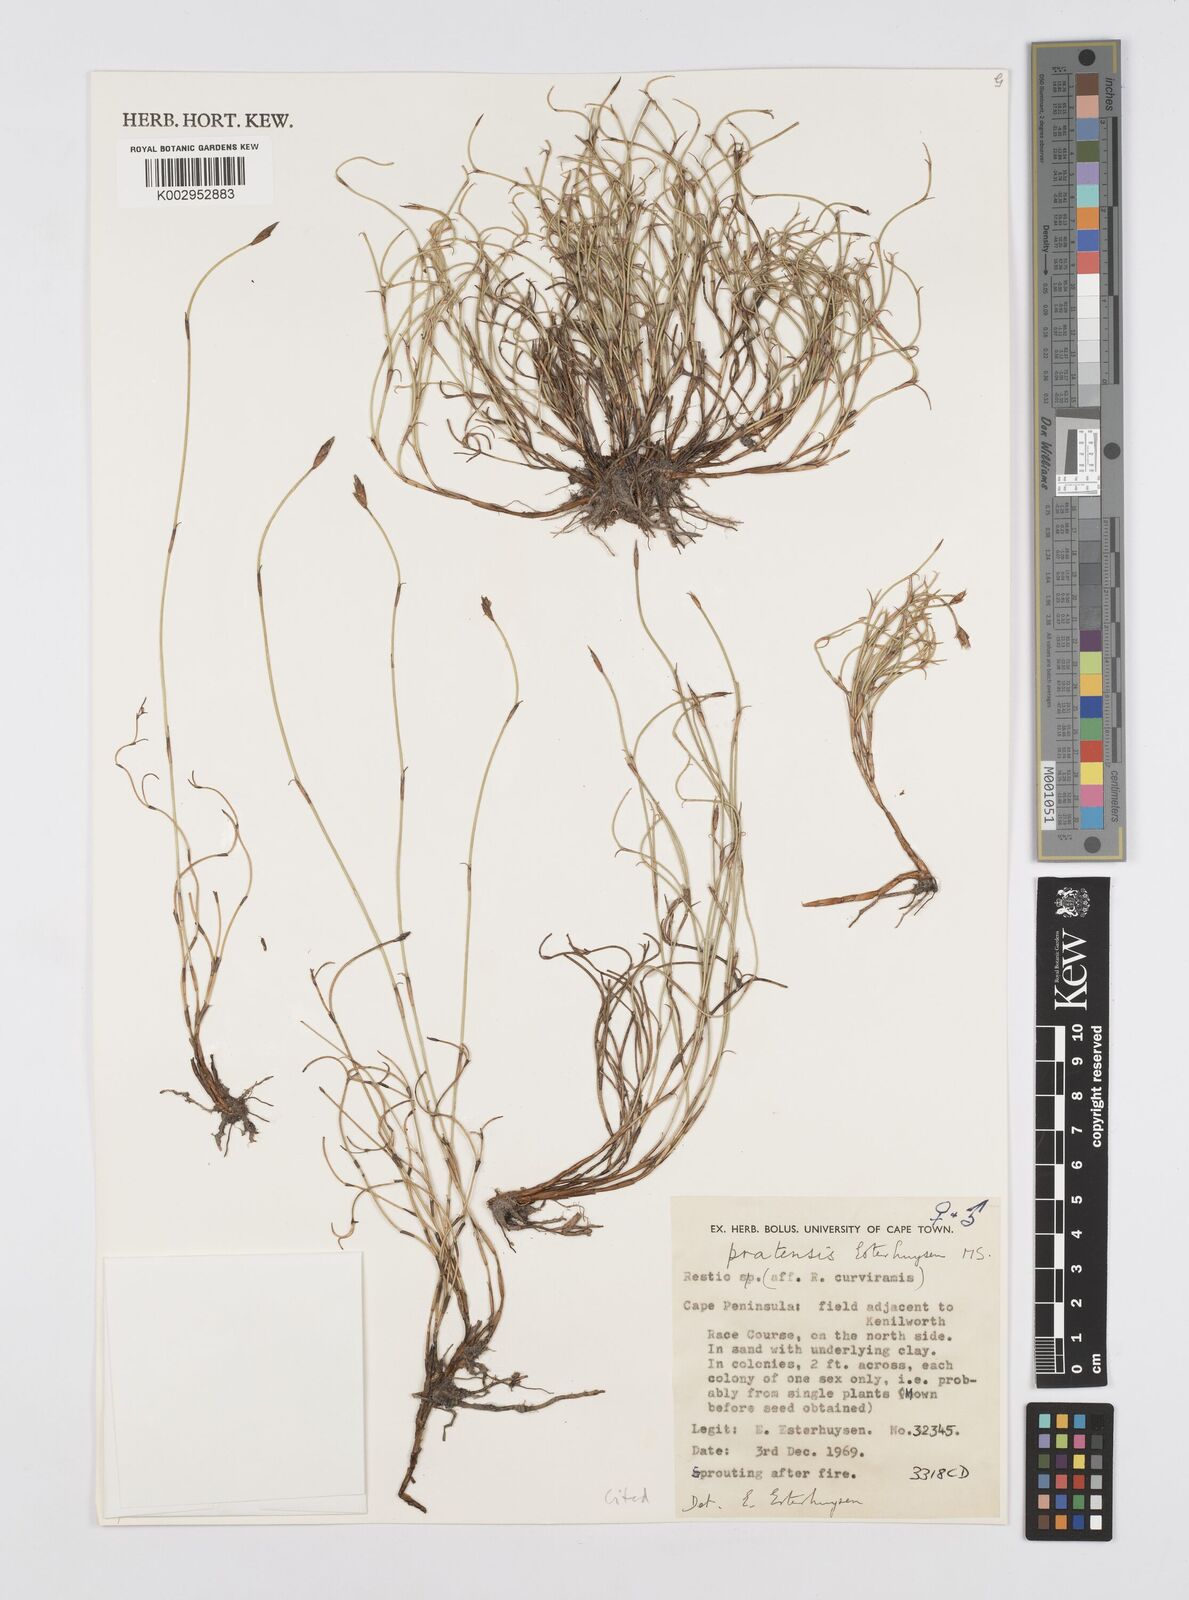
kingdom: Plantae
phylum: Tracheophyta
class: Liliopsida
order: Poales
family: Restionaceae
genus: Restio
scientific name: Restio pratensis
